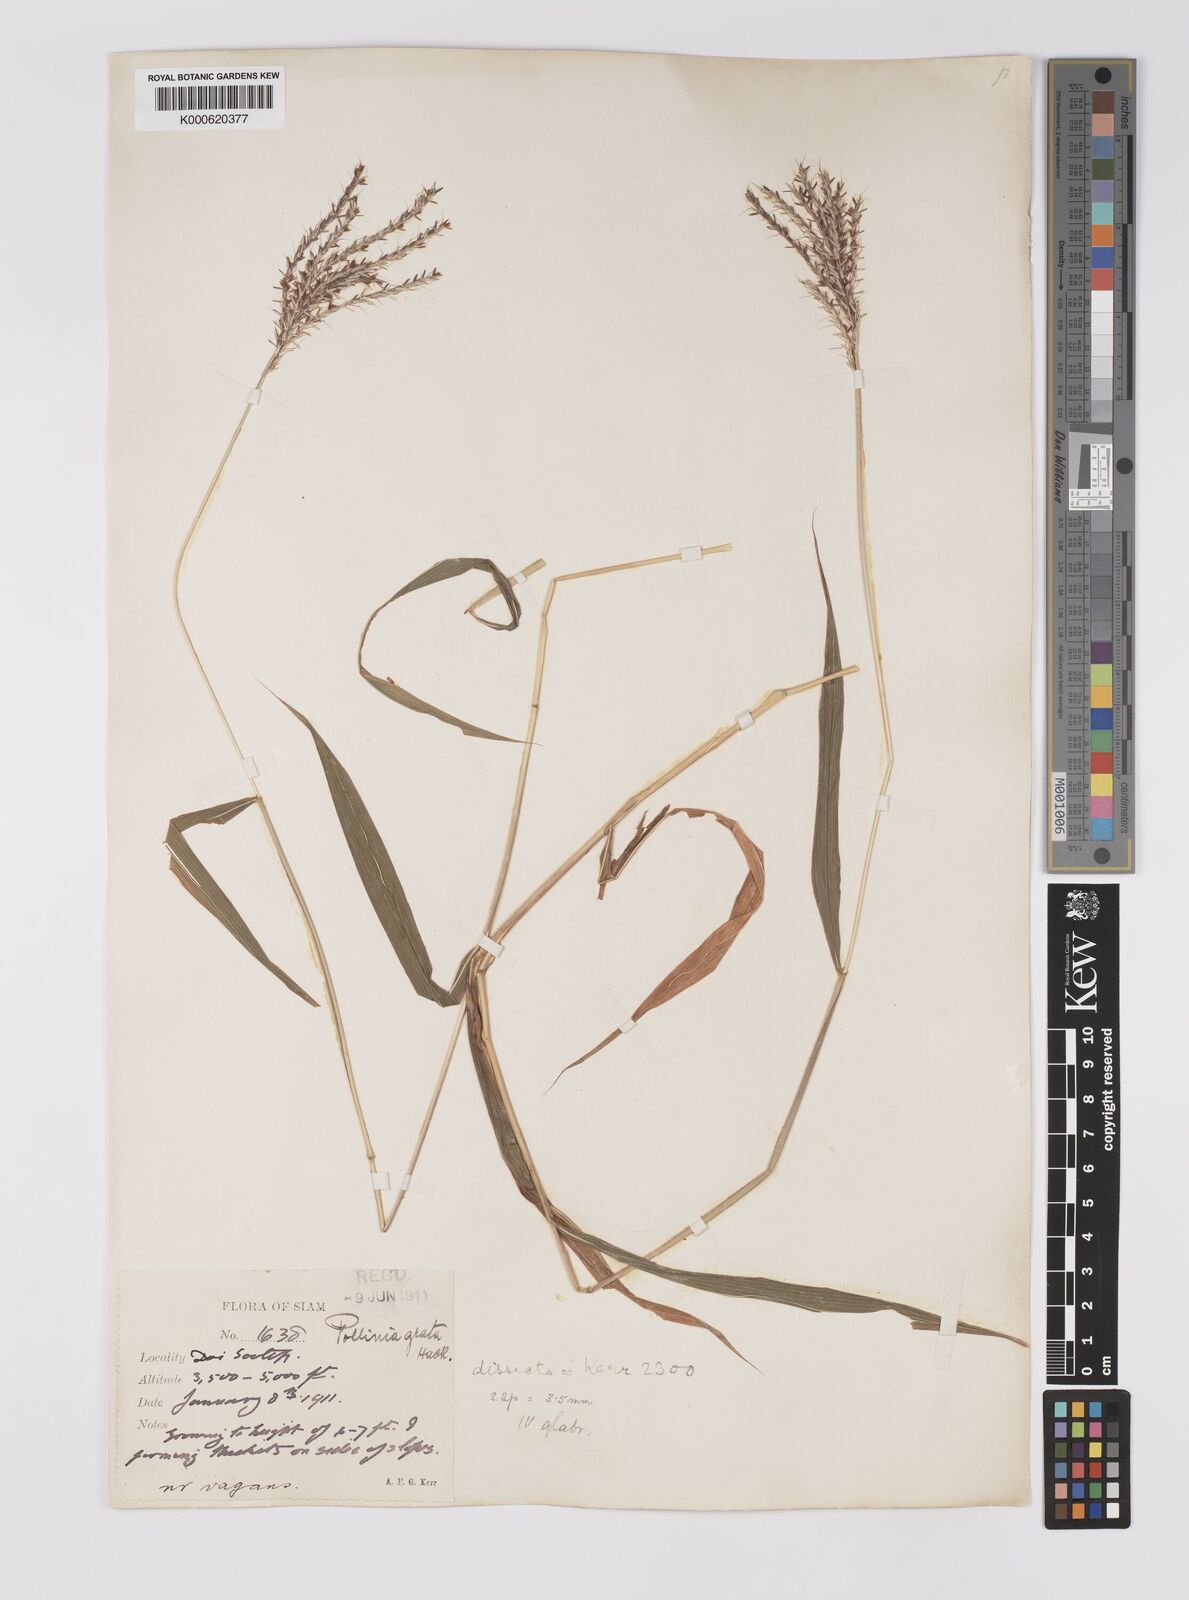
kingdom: Plantae
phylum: Tracheophyta
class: Liliopsida
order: Poales
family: Poaceae
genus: Microstegium
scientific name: Microstegium fasciculatum
